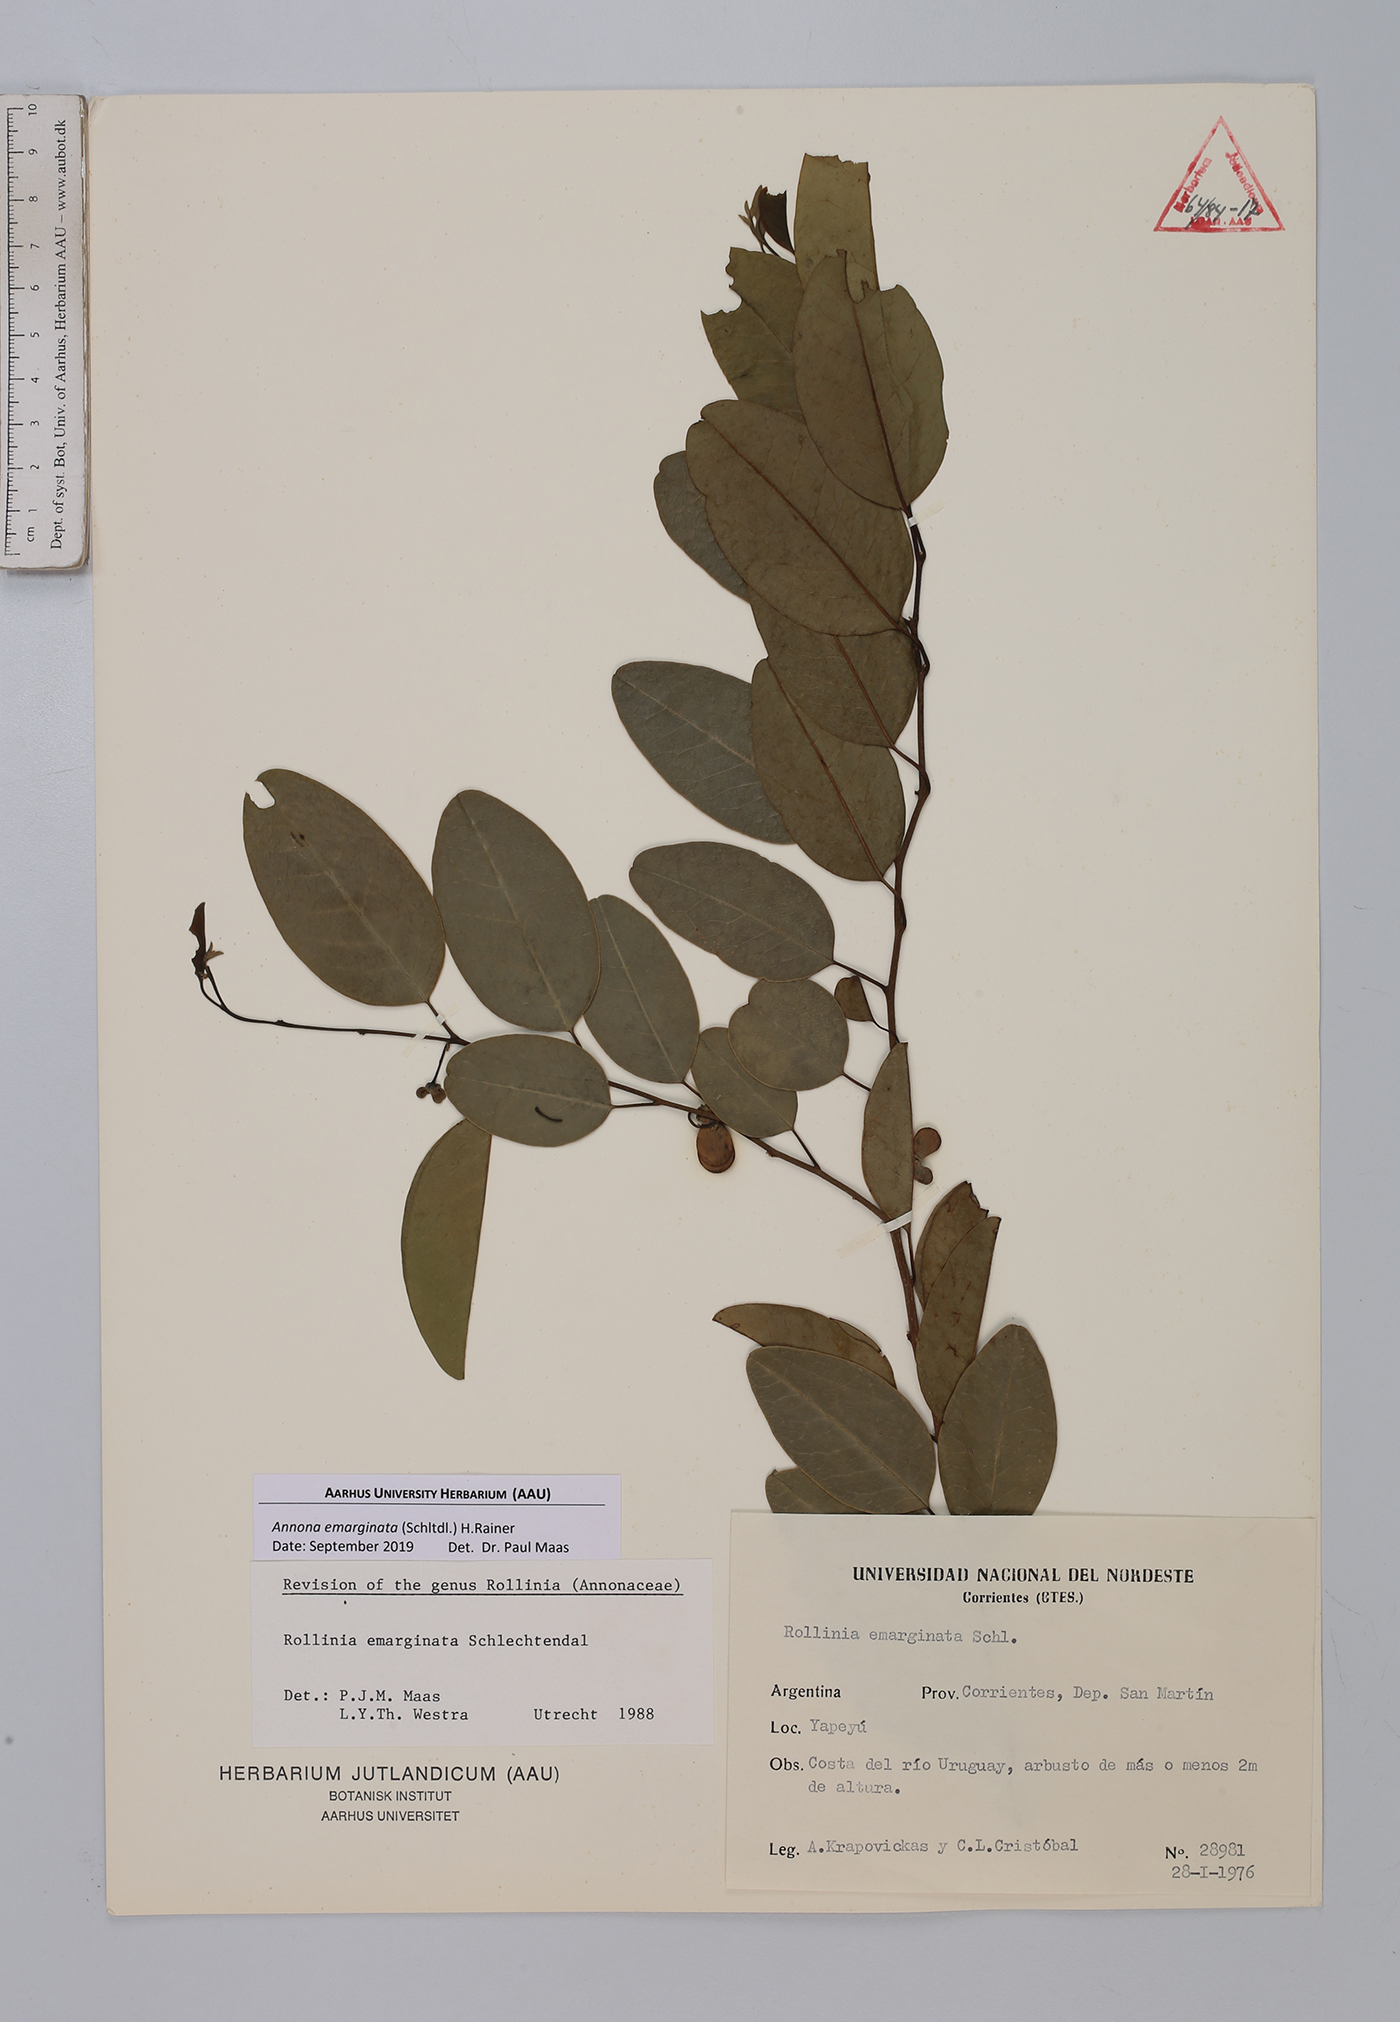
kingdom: Plantae
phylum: Tracheophyta
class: Magnoliopsida
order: Magnoliales
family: Annonaceae
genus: Annona
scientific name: Annona emarginata
